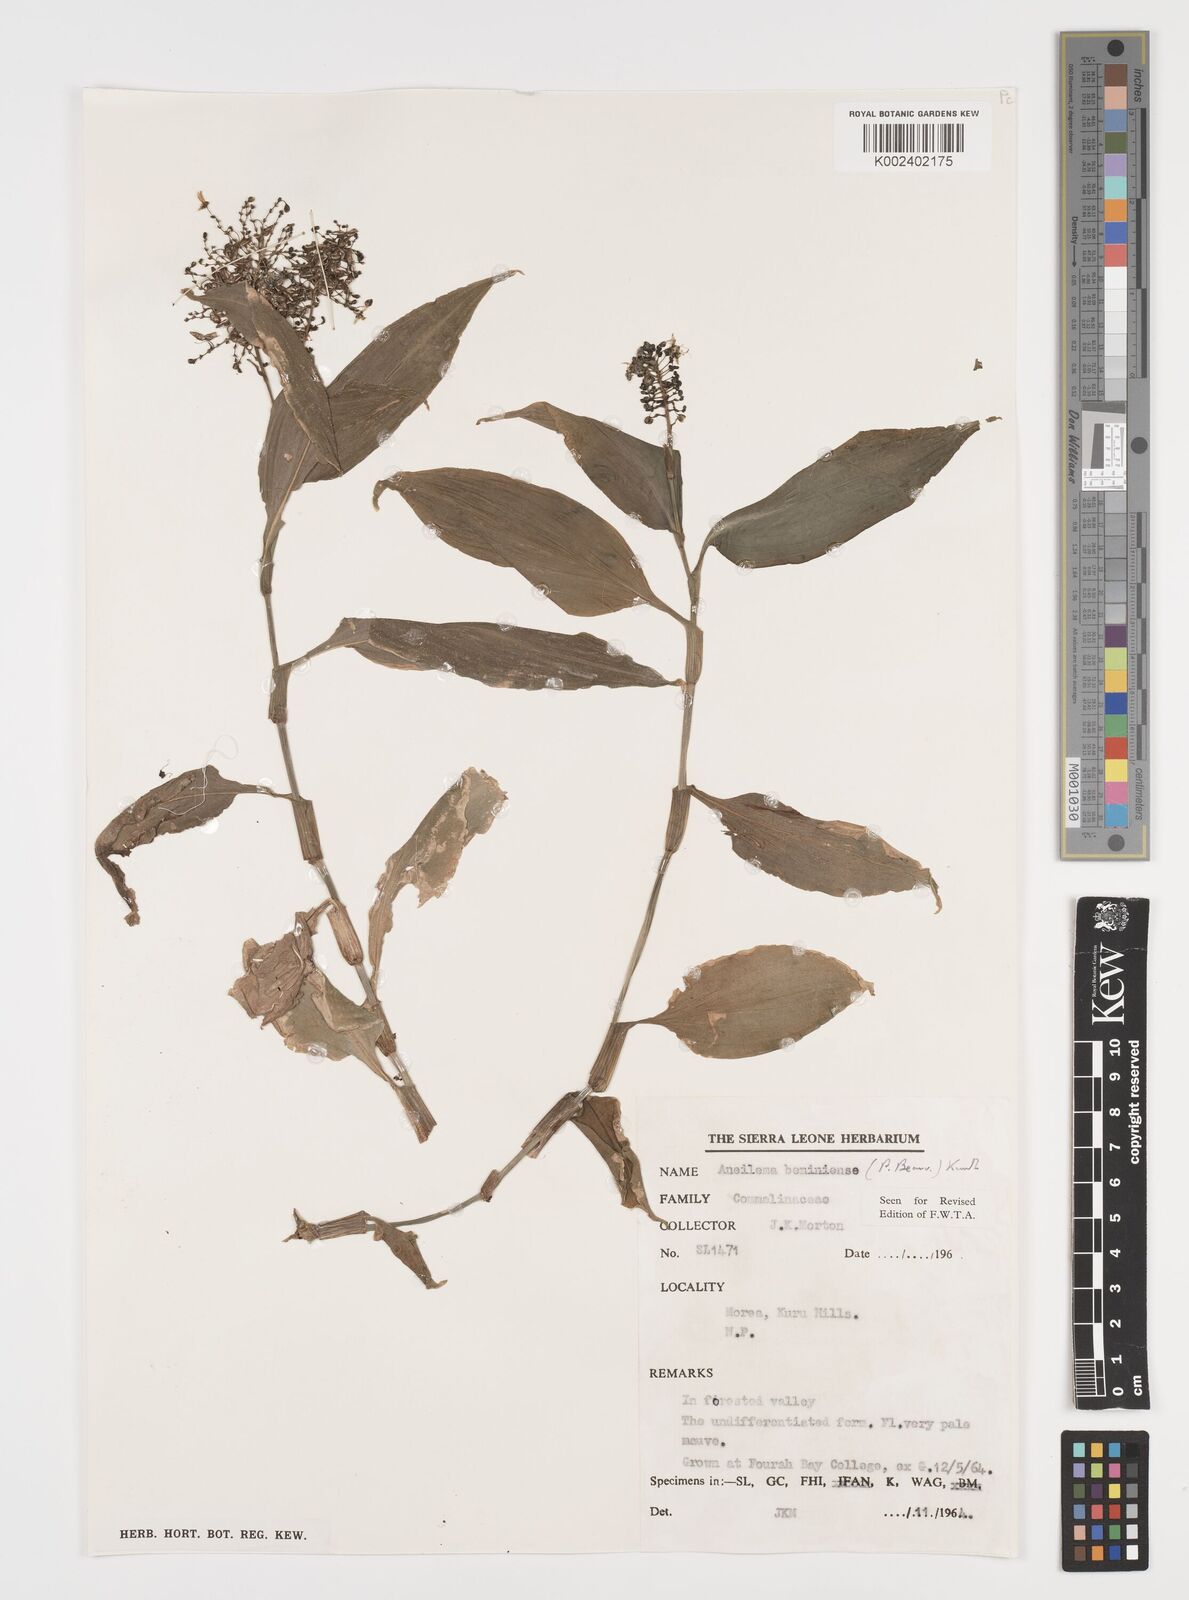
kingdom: Plantae
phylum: Tracheophyta
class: Liliopsida
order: Commelinales
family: Commelinaceae
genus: Aneilema
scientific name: Aneilema beniniense
